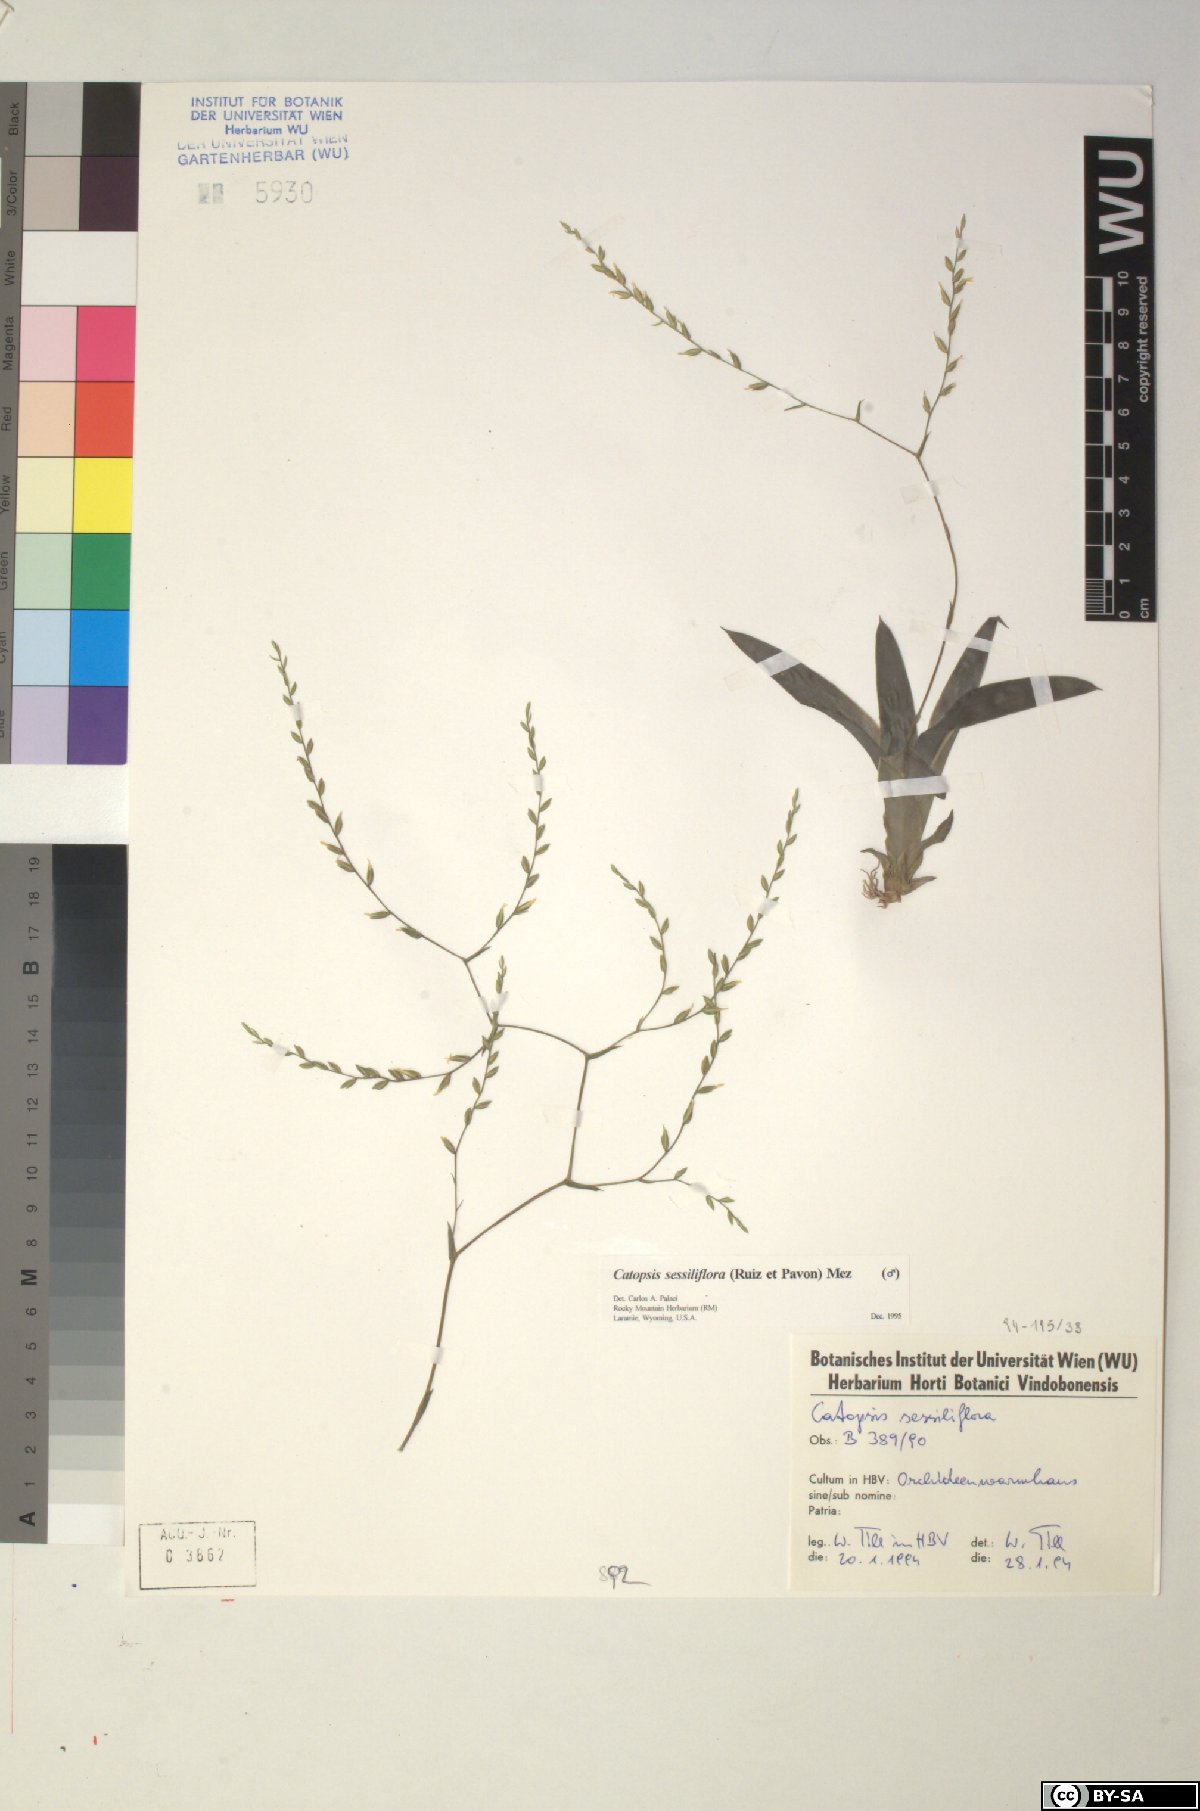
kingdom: Plantae
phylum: Tracheophyta
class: Liliopsida
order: Poales
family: Bromeliaceae
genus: Catopsis
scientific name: Catopsis sessiliflora
